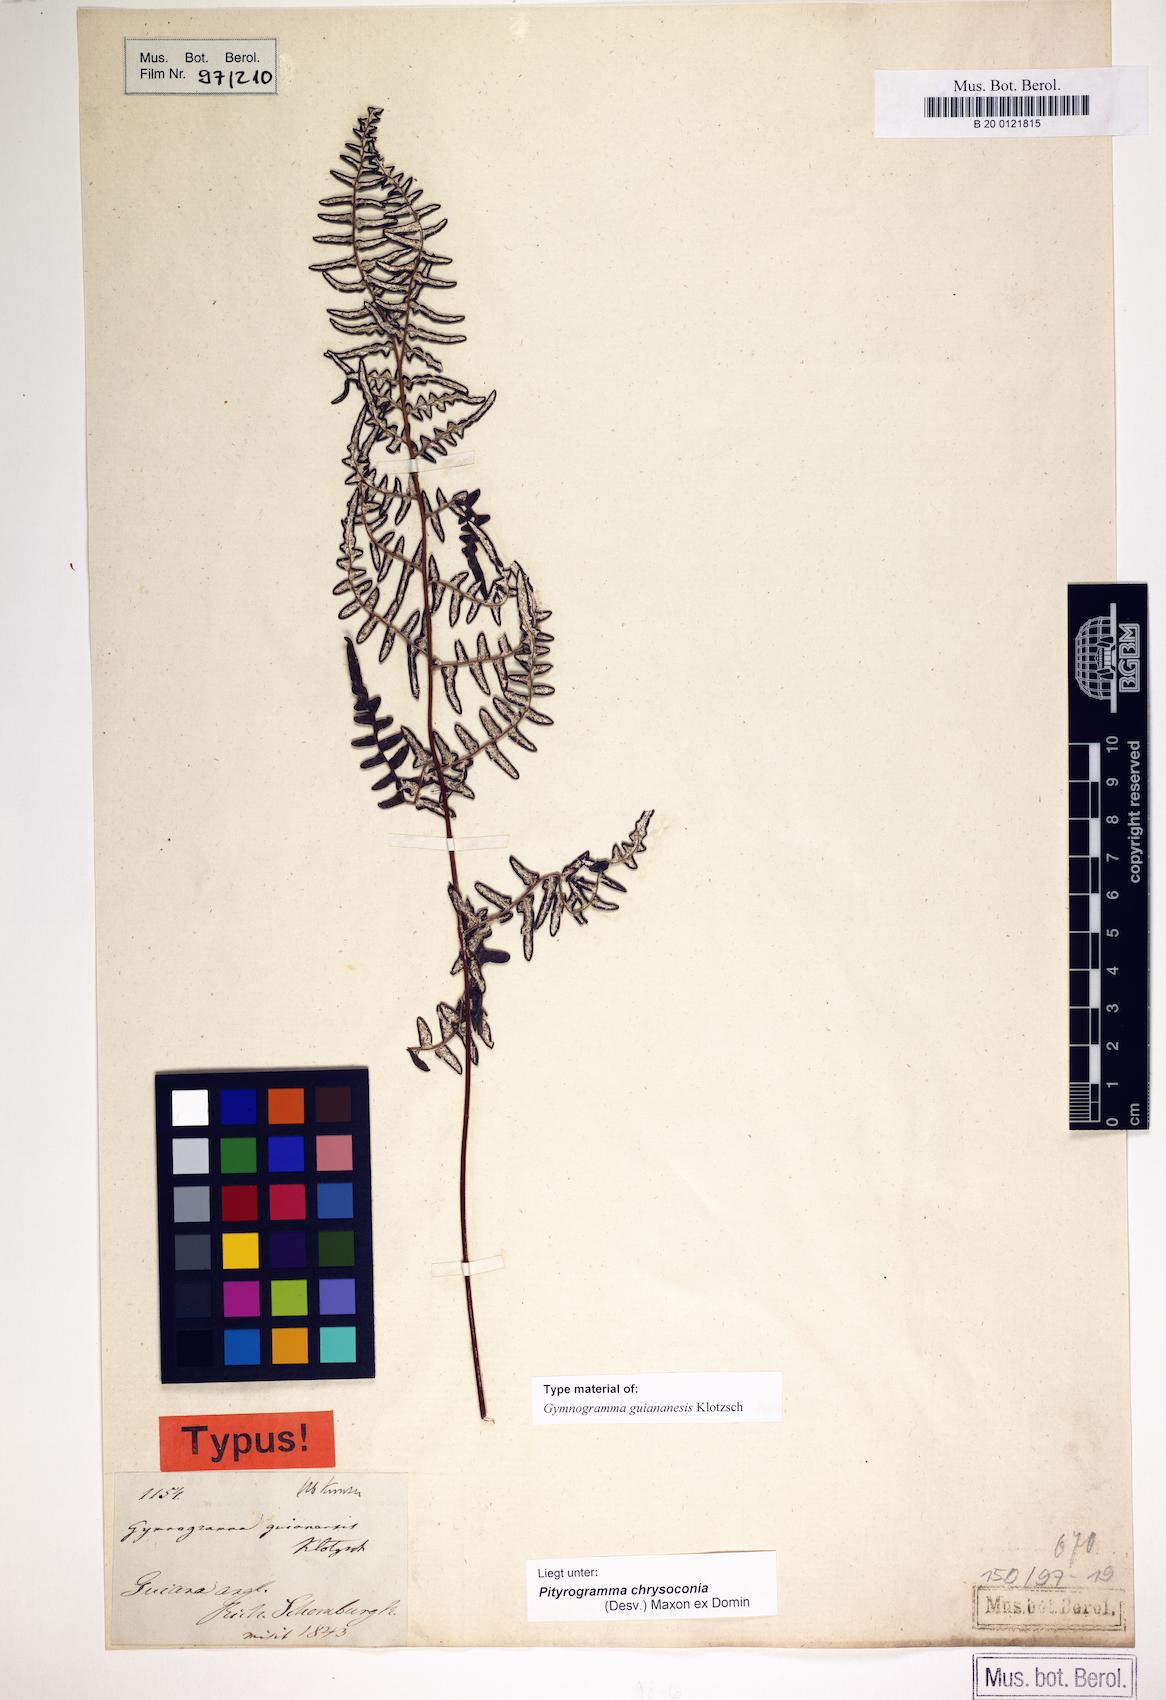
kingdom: Plantae
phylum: Tracheophyta
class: Polypodiopsida
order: Polypodiales
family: Pteridaceae
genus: Pityrogramma
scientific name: Pityrogramma chrysoconia
